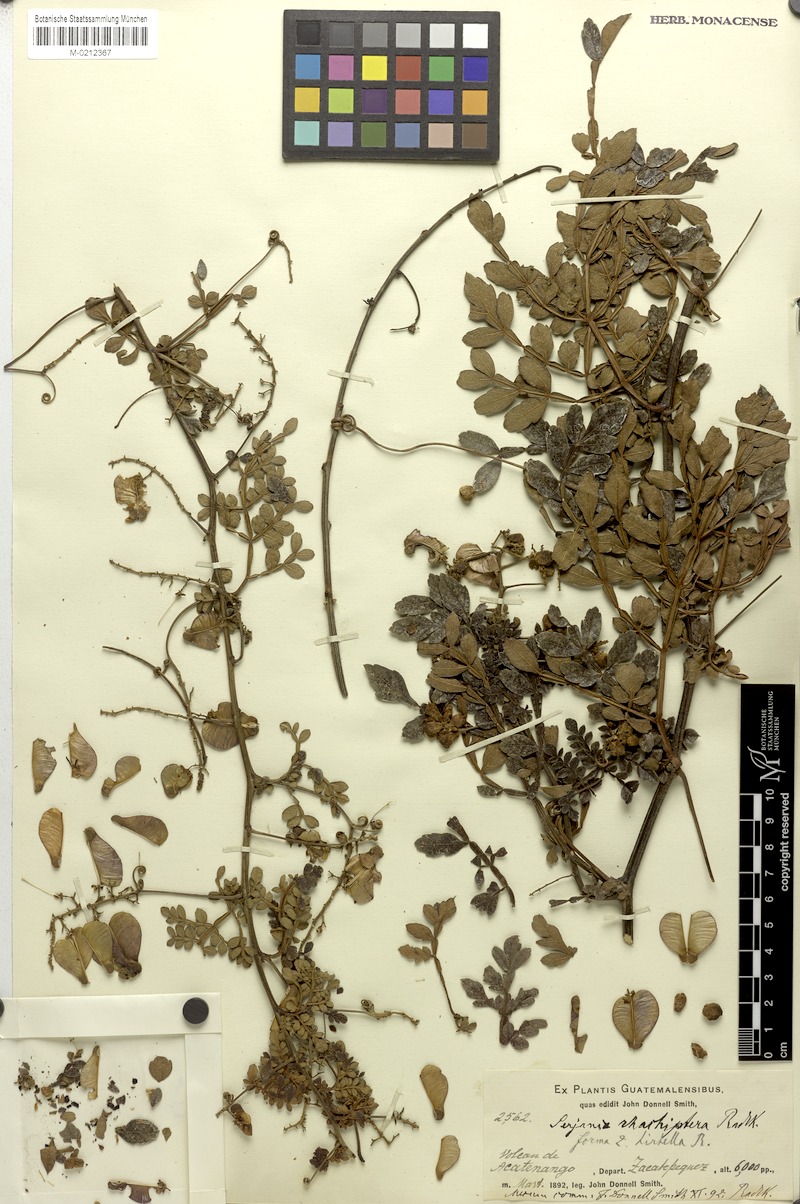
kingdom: Plantae
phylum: Tracheophyta
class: Magnoliopsida
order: Sapindales
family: Sapindaceae
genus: Serjania
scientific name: Serjania rhachiptera
